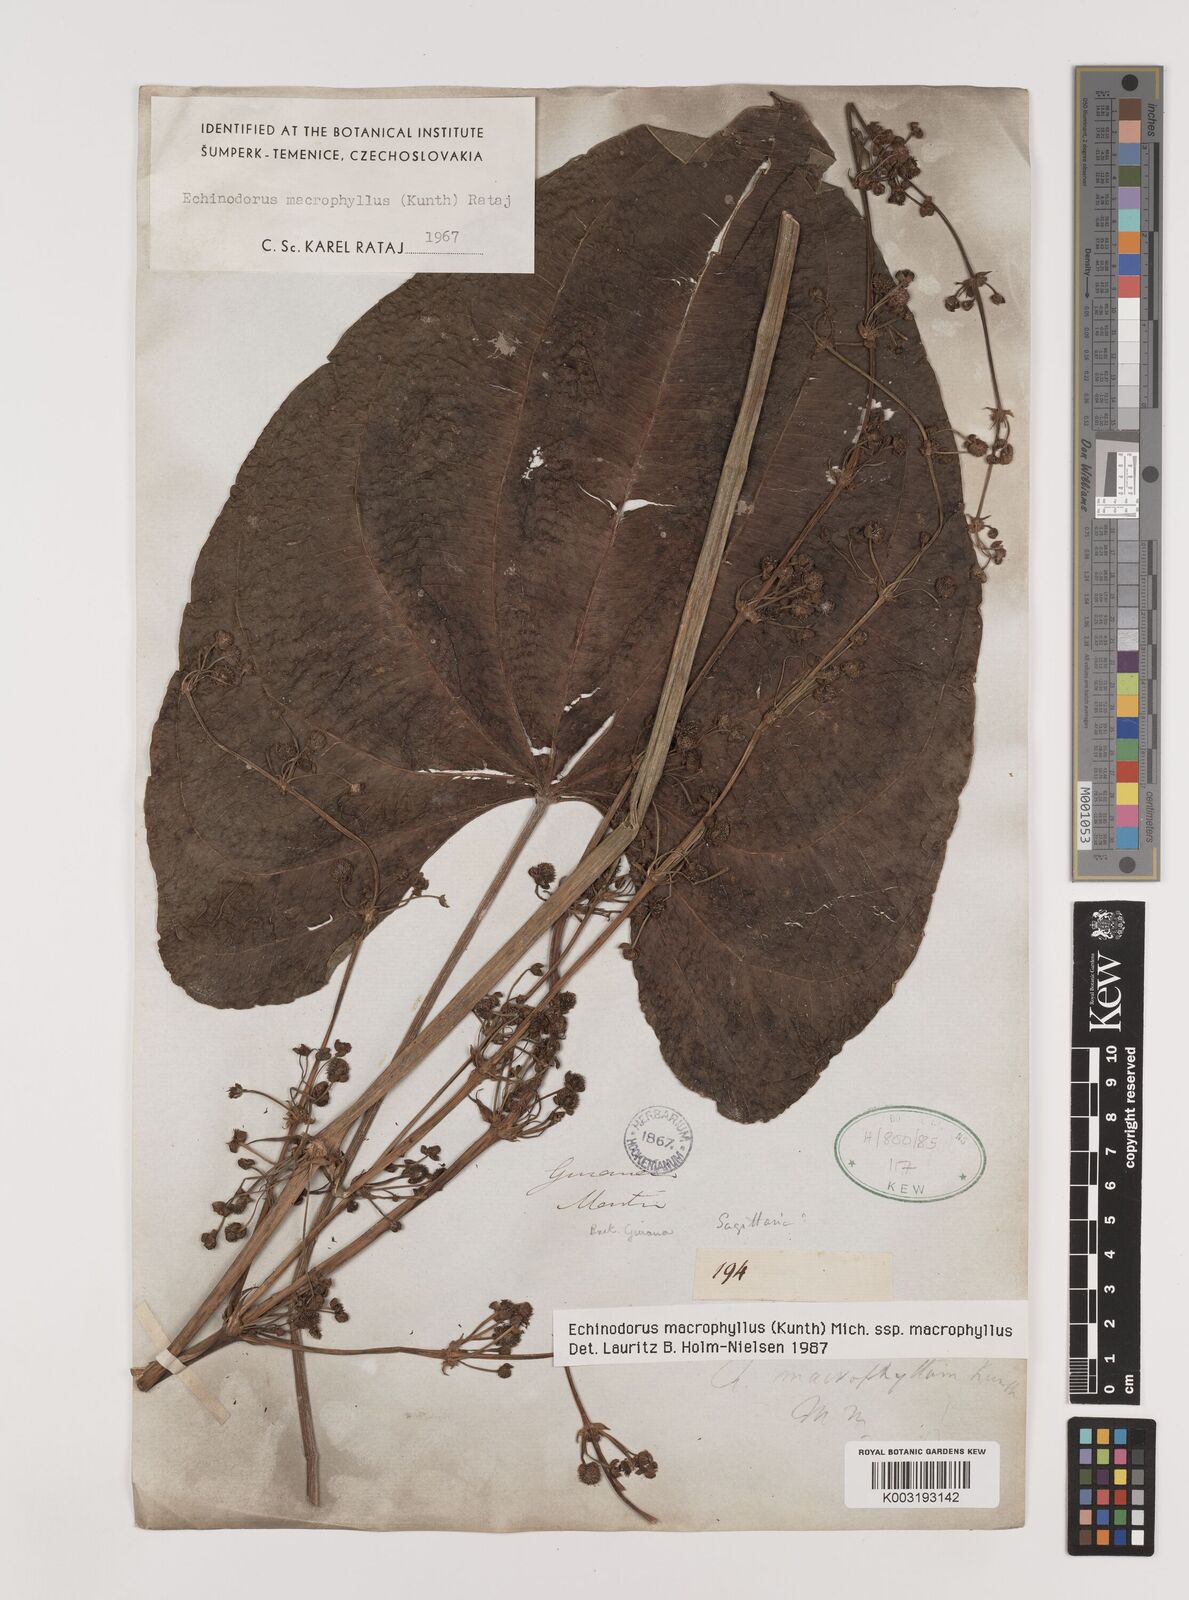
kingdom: Plantae
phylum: Tracheophyta
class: Liliopsida
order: Alismatales
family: Alismataceae
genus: Aquarius
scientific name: Aquarius macrophyllus
